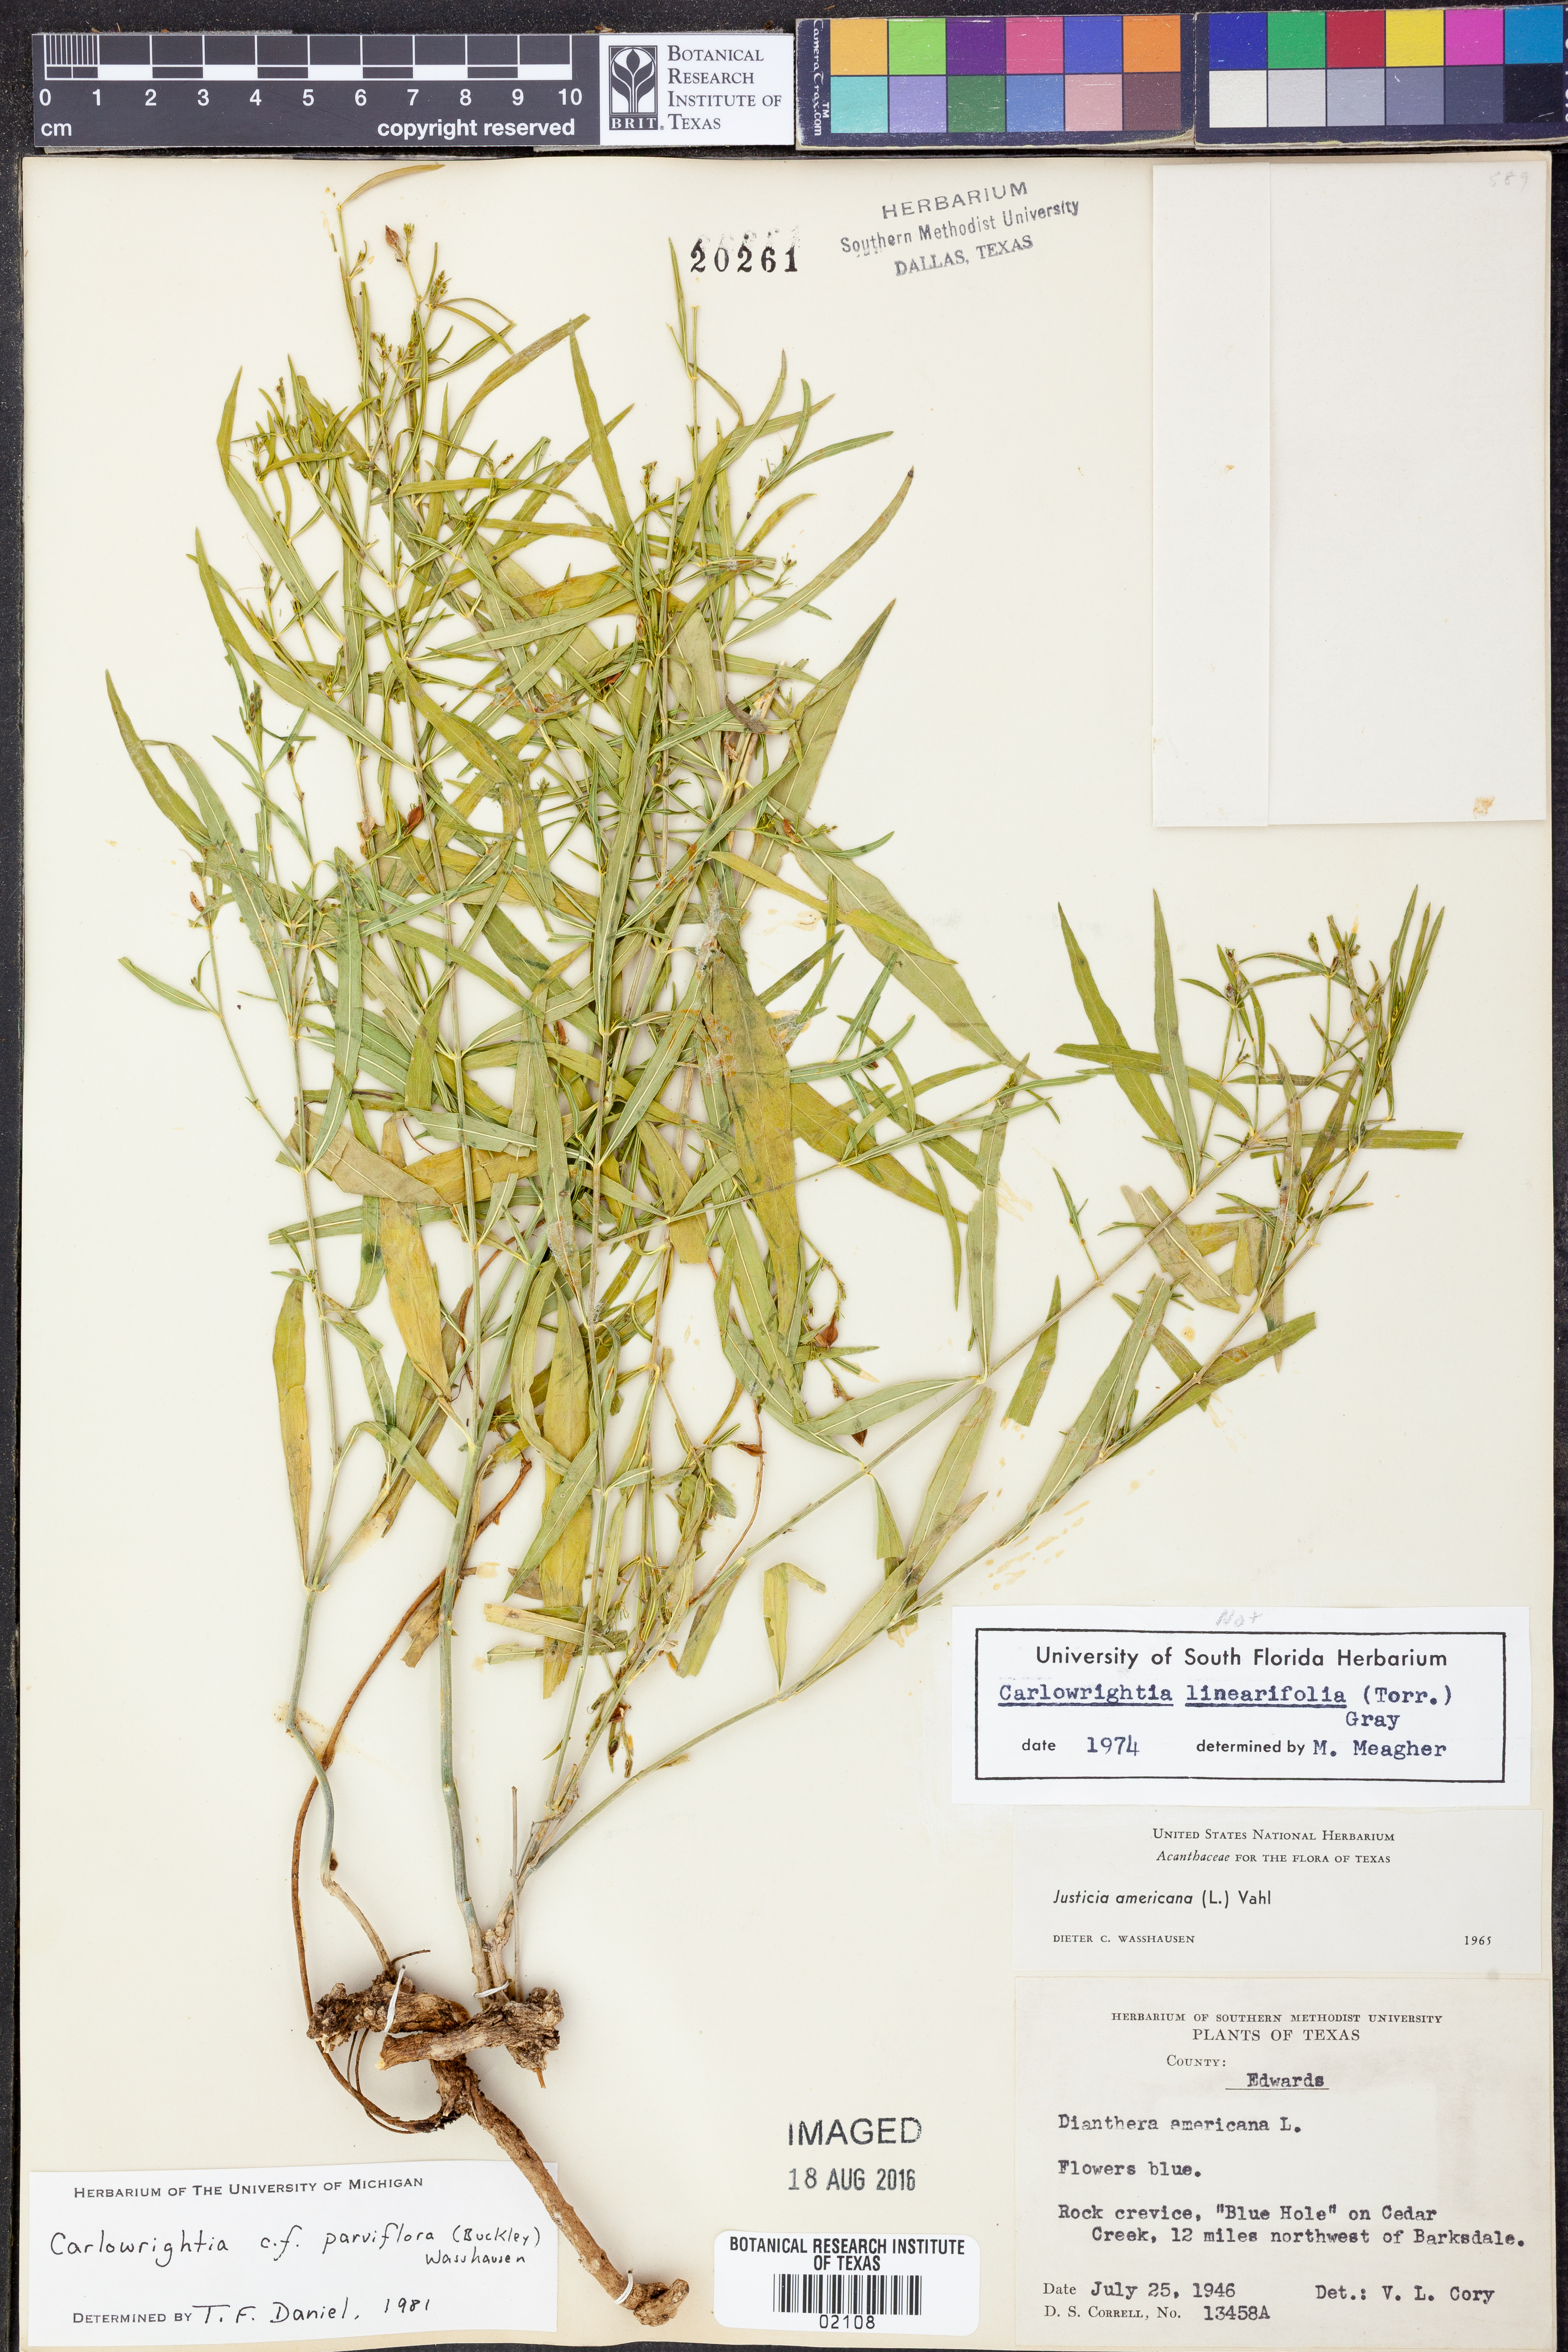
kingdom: Plantae
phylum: Tracheophyta
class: Magnoliopsida
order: Lamiales
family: Acanthaceae
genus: Carlowrightia
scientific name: Carlowrightia parviflora
